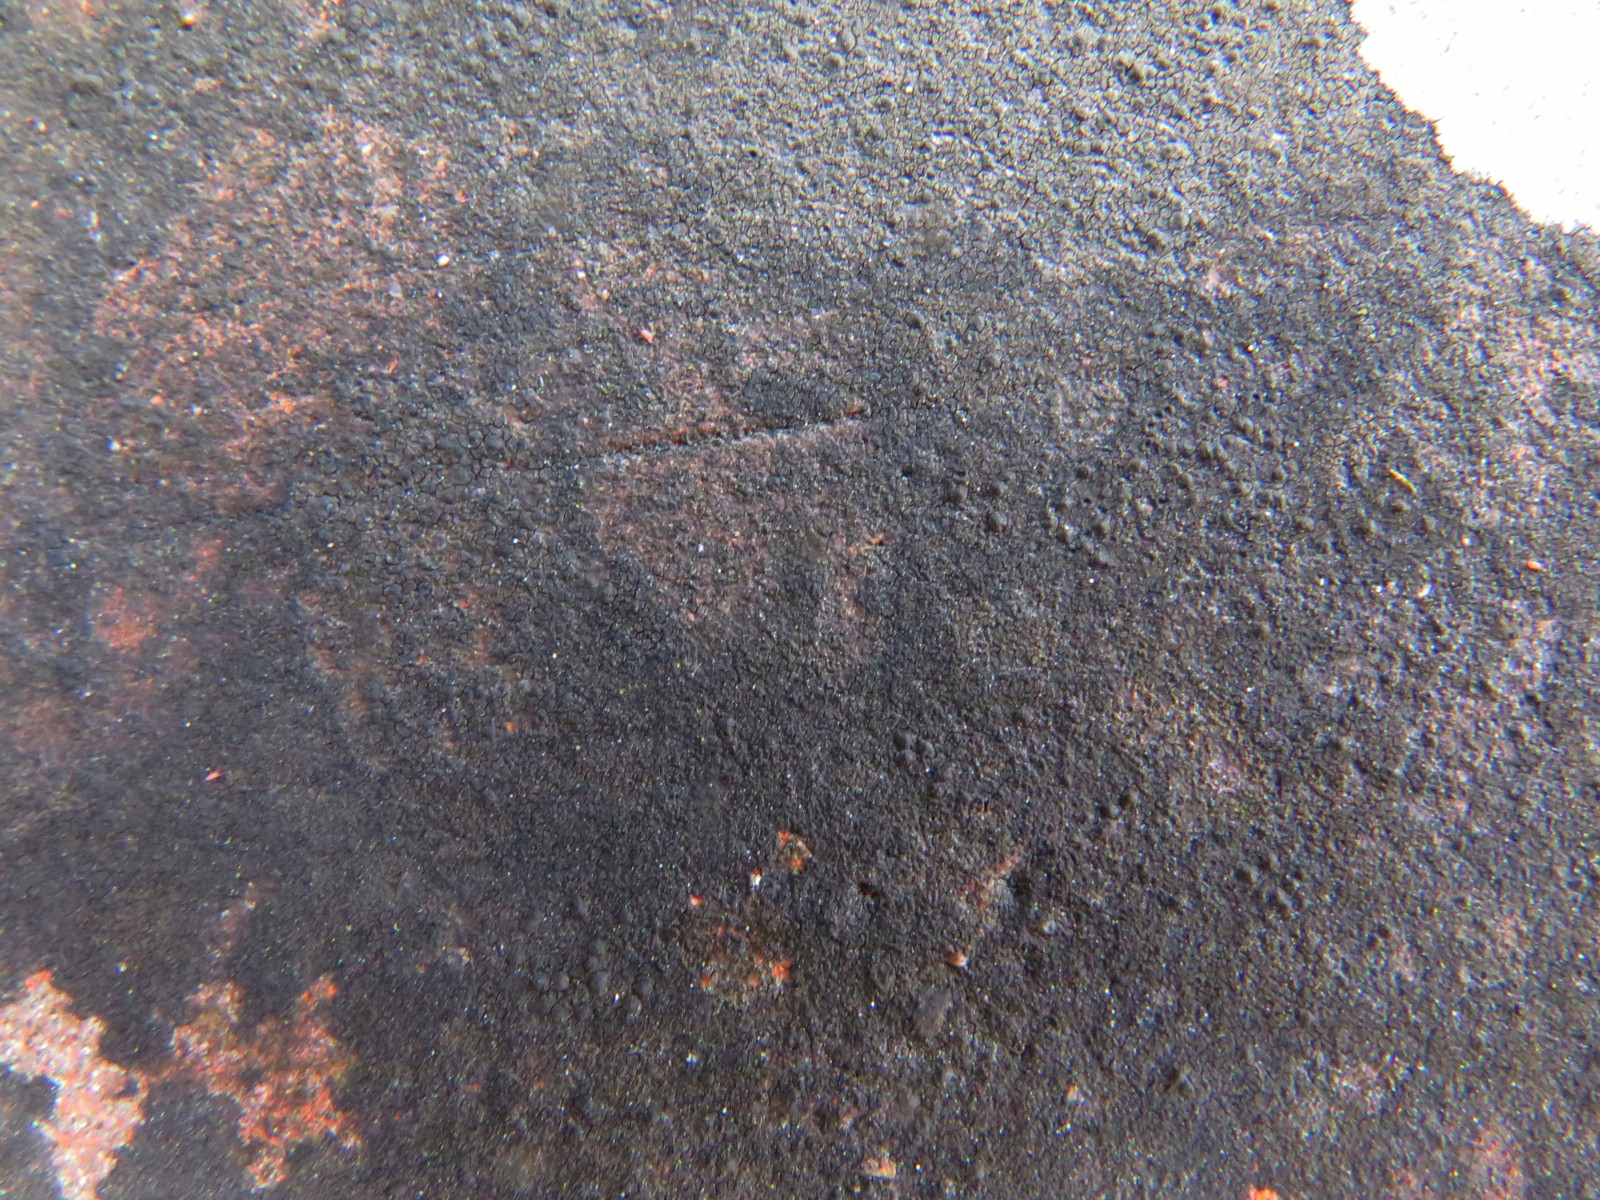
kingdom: Fungi
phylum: Ascomycota
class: Eurotiomycetes
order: Verrucariales
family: Verrucariaceae
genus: Verrucaria
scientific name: Verrucaria nigrescens
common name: sortbrun vortelav
